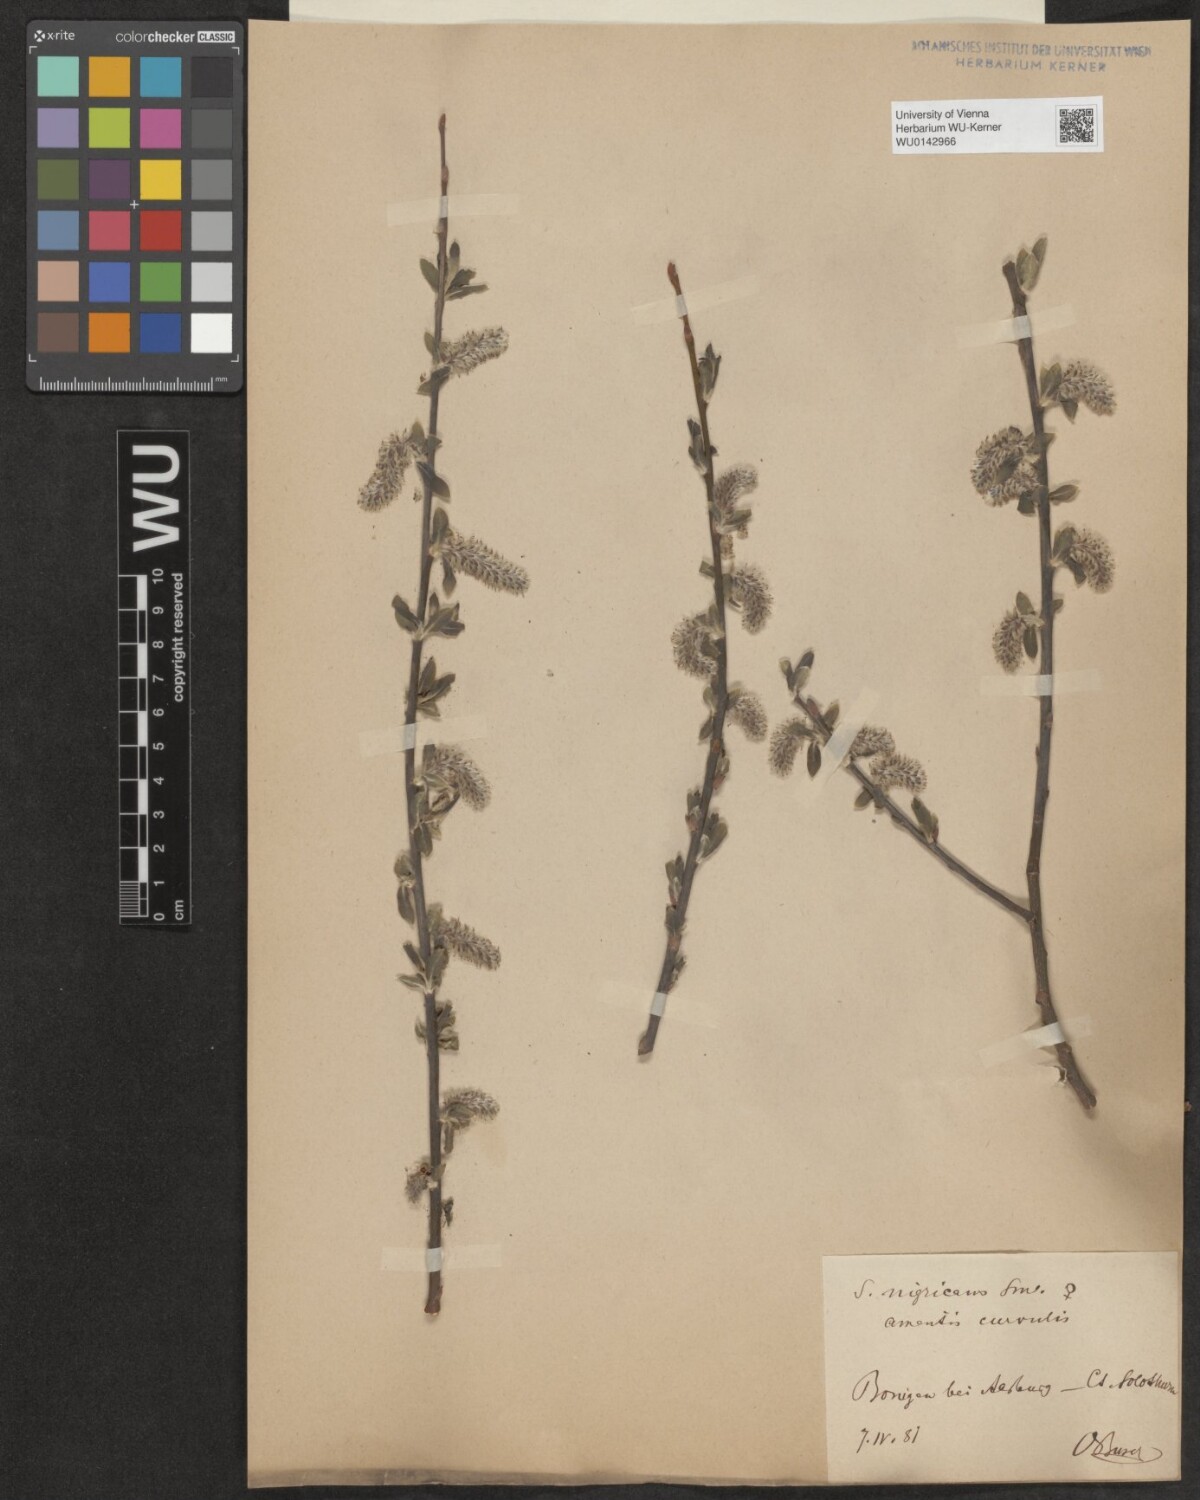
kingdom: Plantae
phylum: Tracheophyta
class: Magnoliopsida
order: Malpighiales
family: Salicaceae
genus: Salix
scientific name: Salix myrsinifolia
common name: Dark-leaved willow
